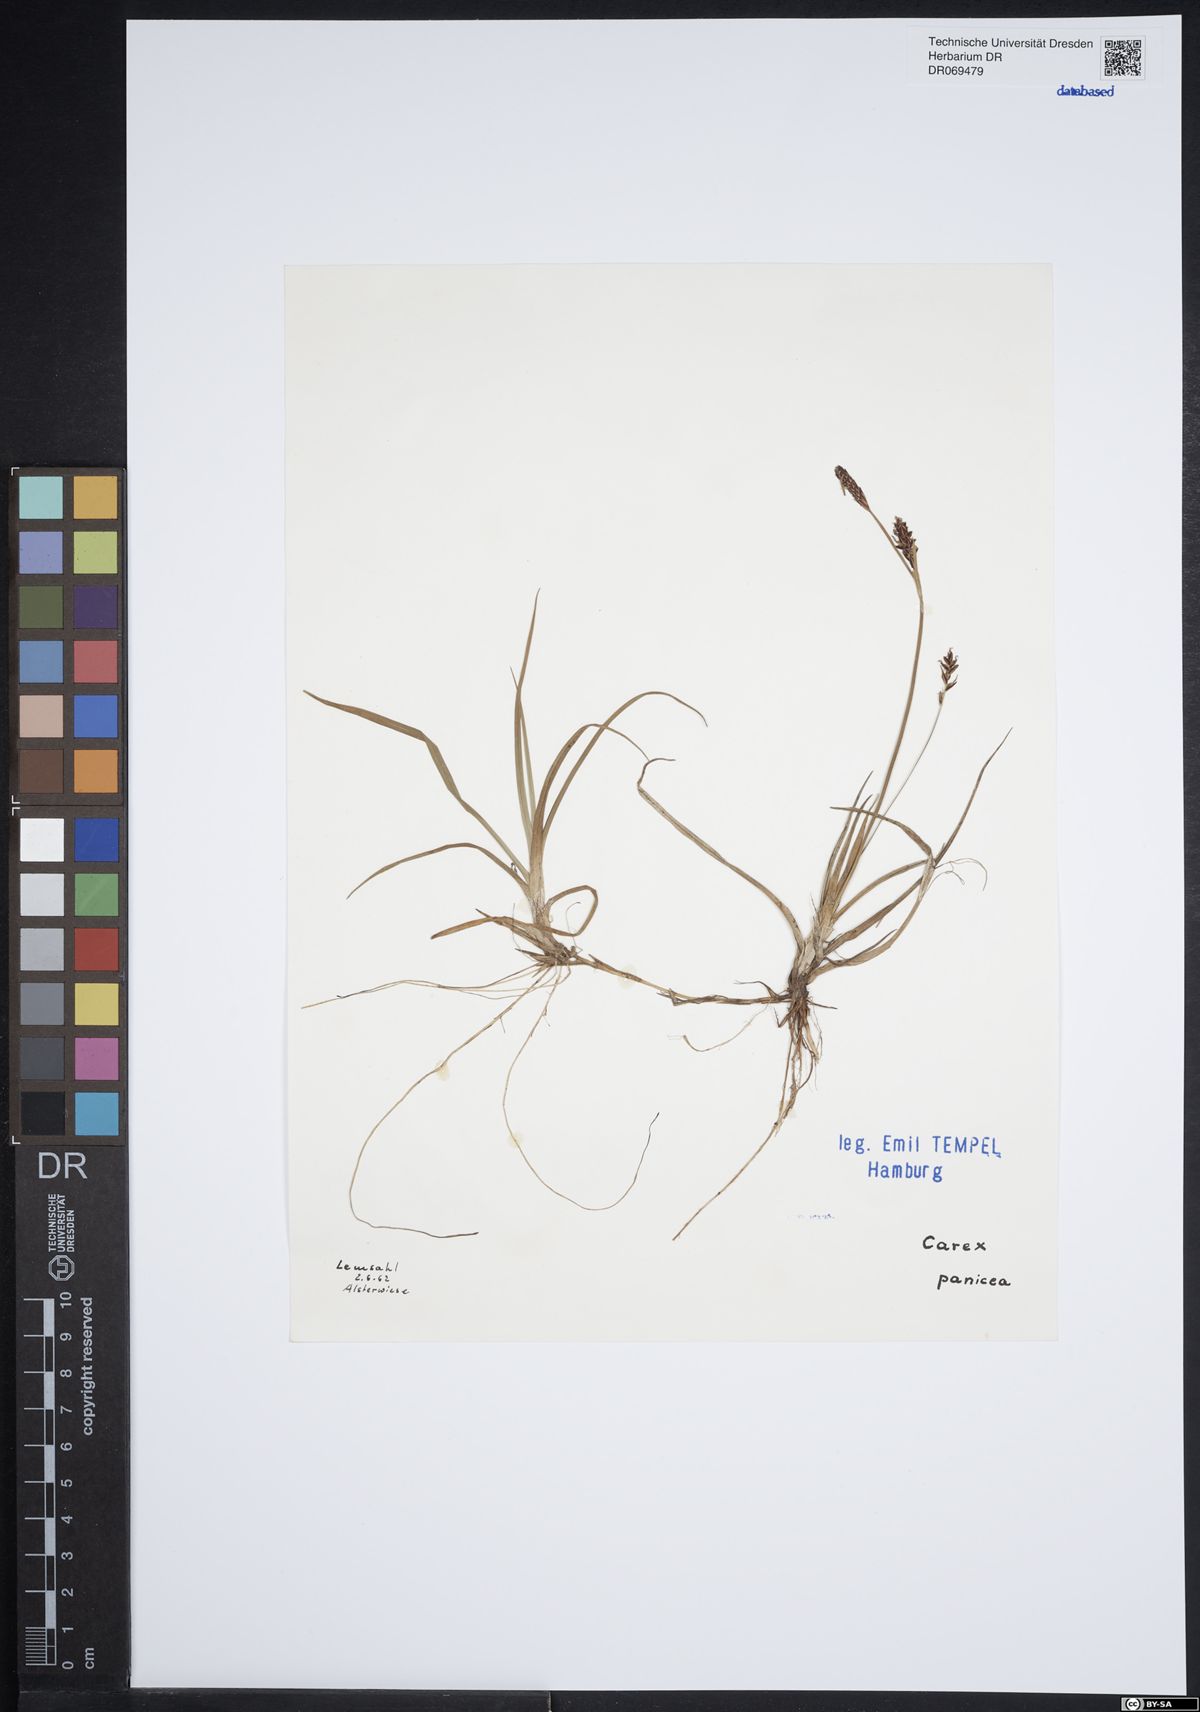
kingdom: Plantae
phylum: Tracheophyta
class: Liliopsida
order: Poales
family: Cyperaceae
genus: Carex
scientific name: Carex panicea
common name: Carnation sedge
